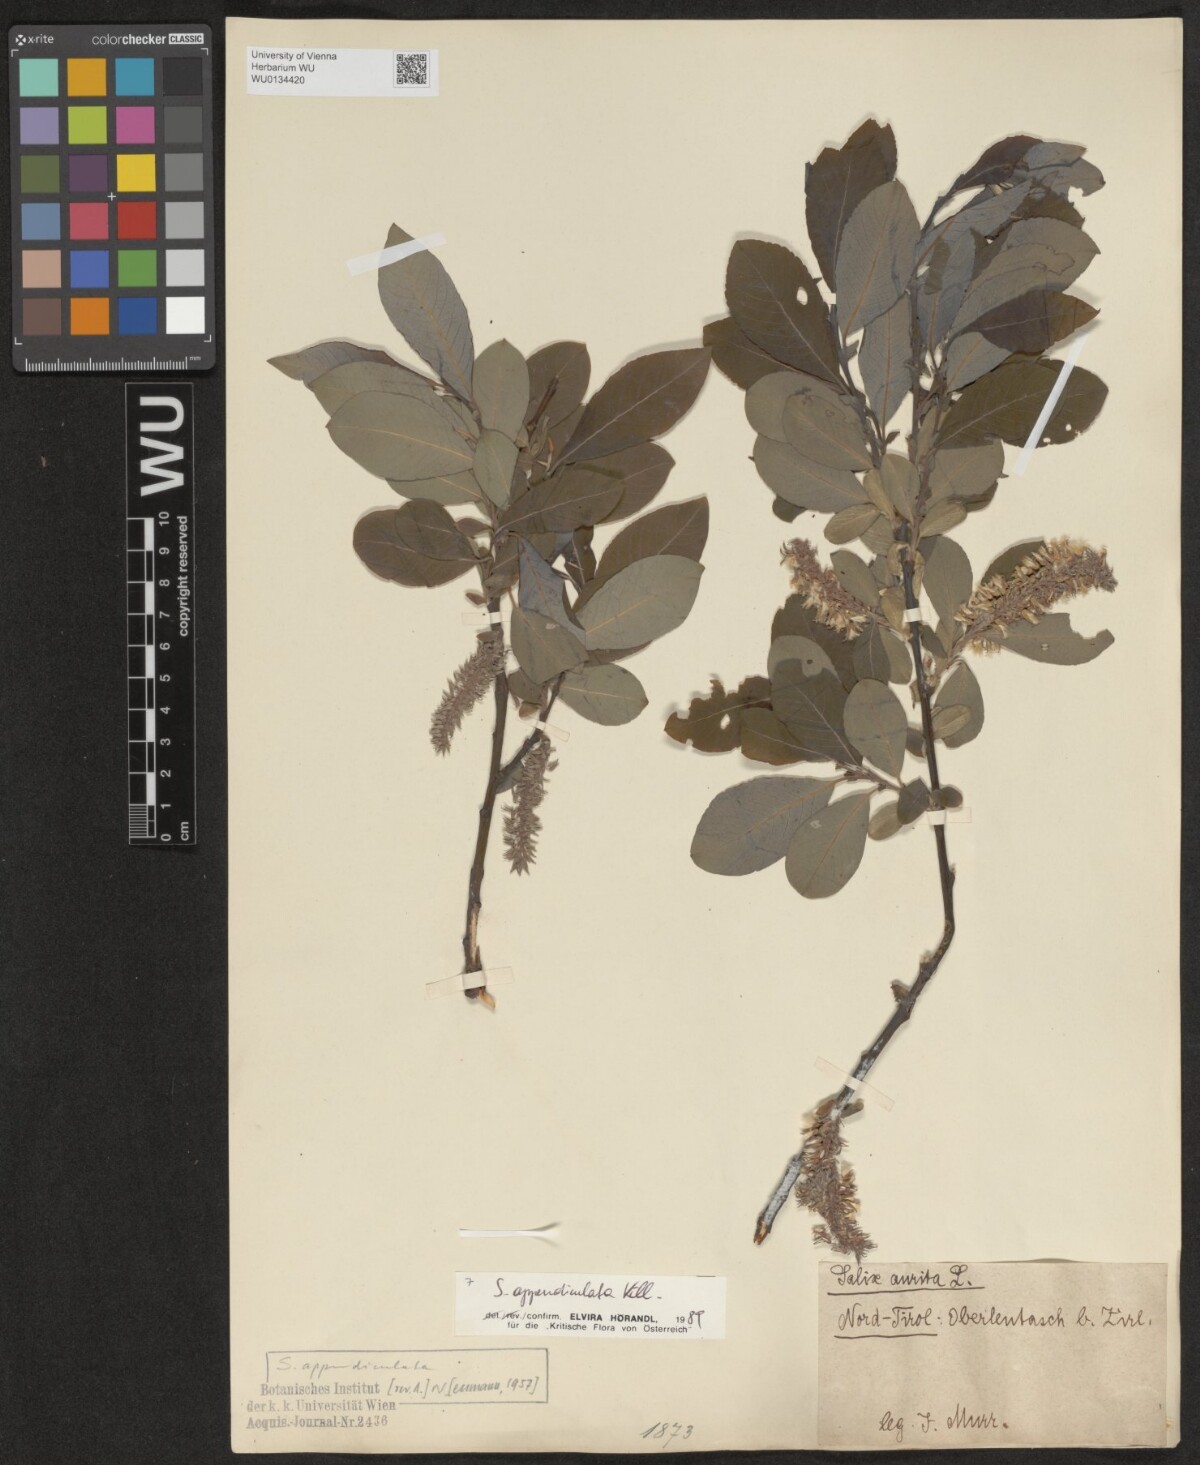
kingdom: Plantae
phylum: Tracheophyta
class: Magnoliopsida
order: Malpighiales
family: Salicaceae
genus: Salix
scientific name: Salix appendiculata
